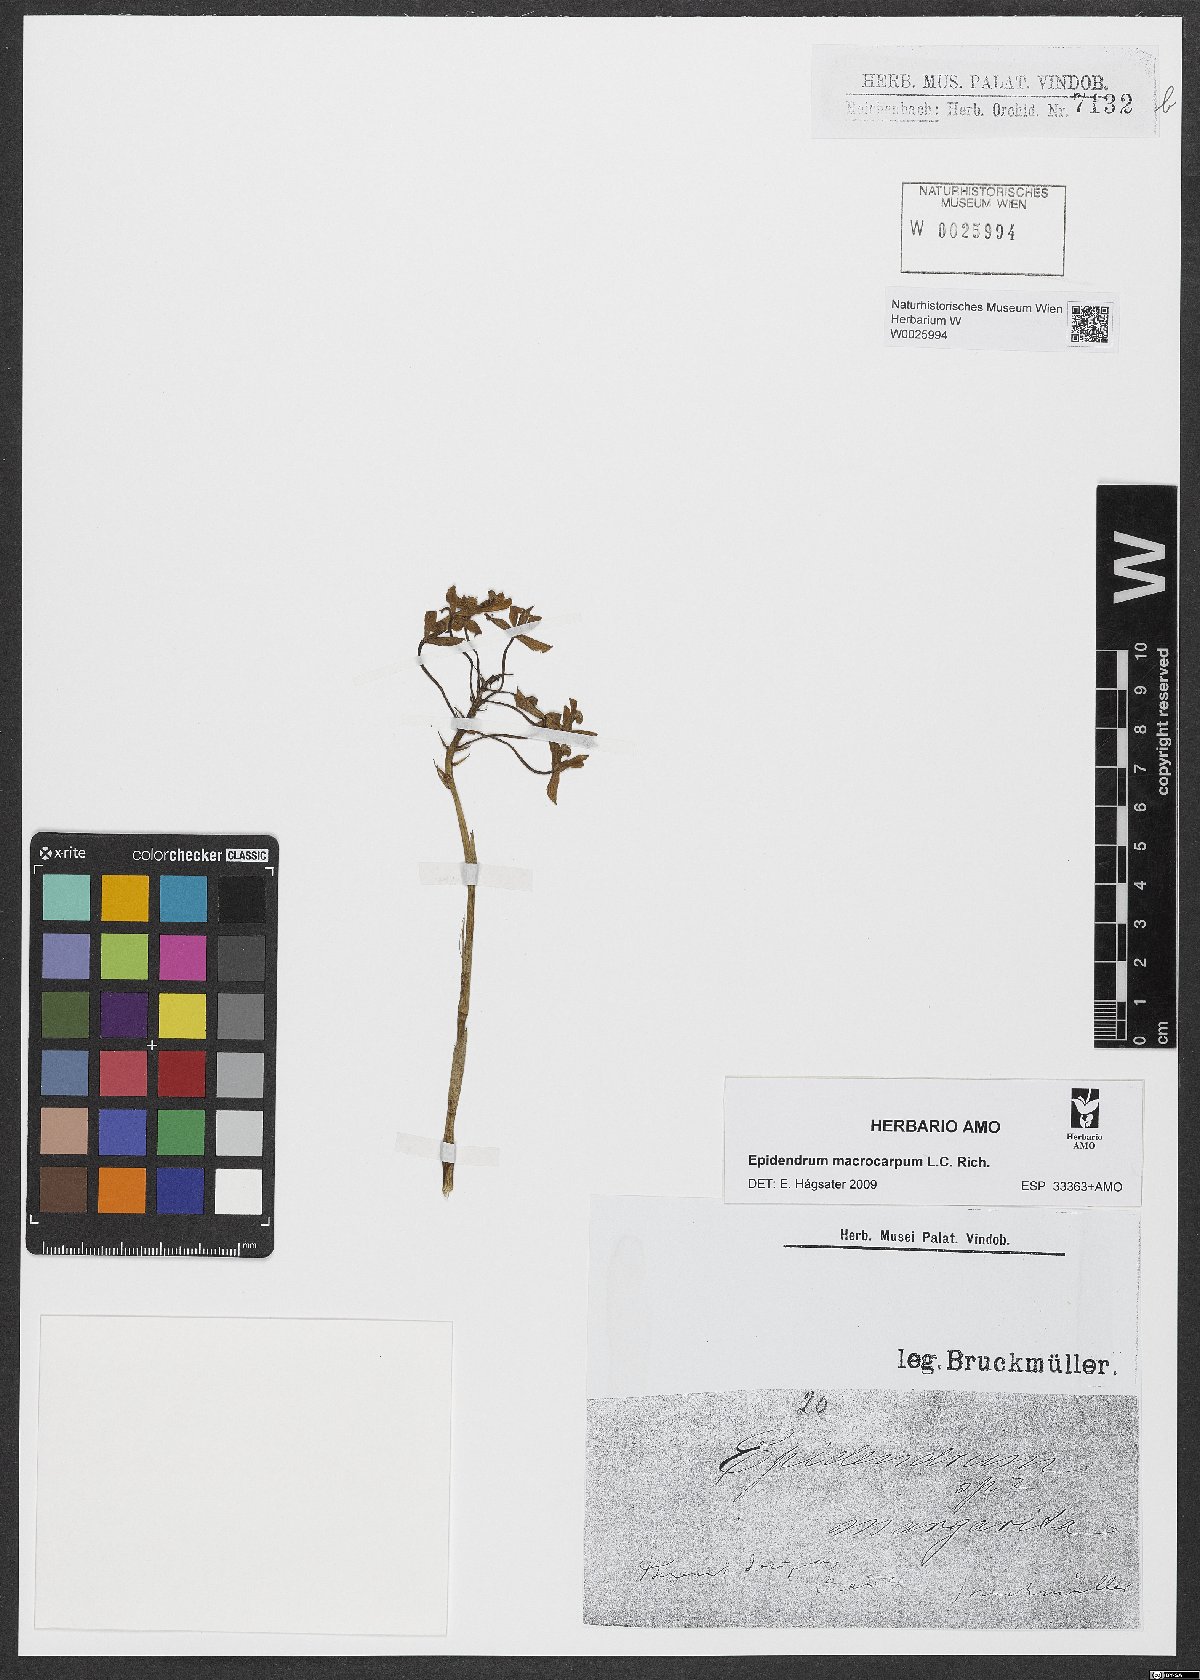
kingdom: Plantae
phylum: Tracheophyta
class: Liliopsida
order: Asparagales
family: Orchidaceae
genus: Epidendrum
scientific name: Epidendrum
